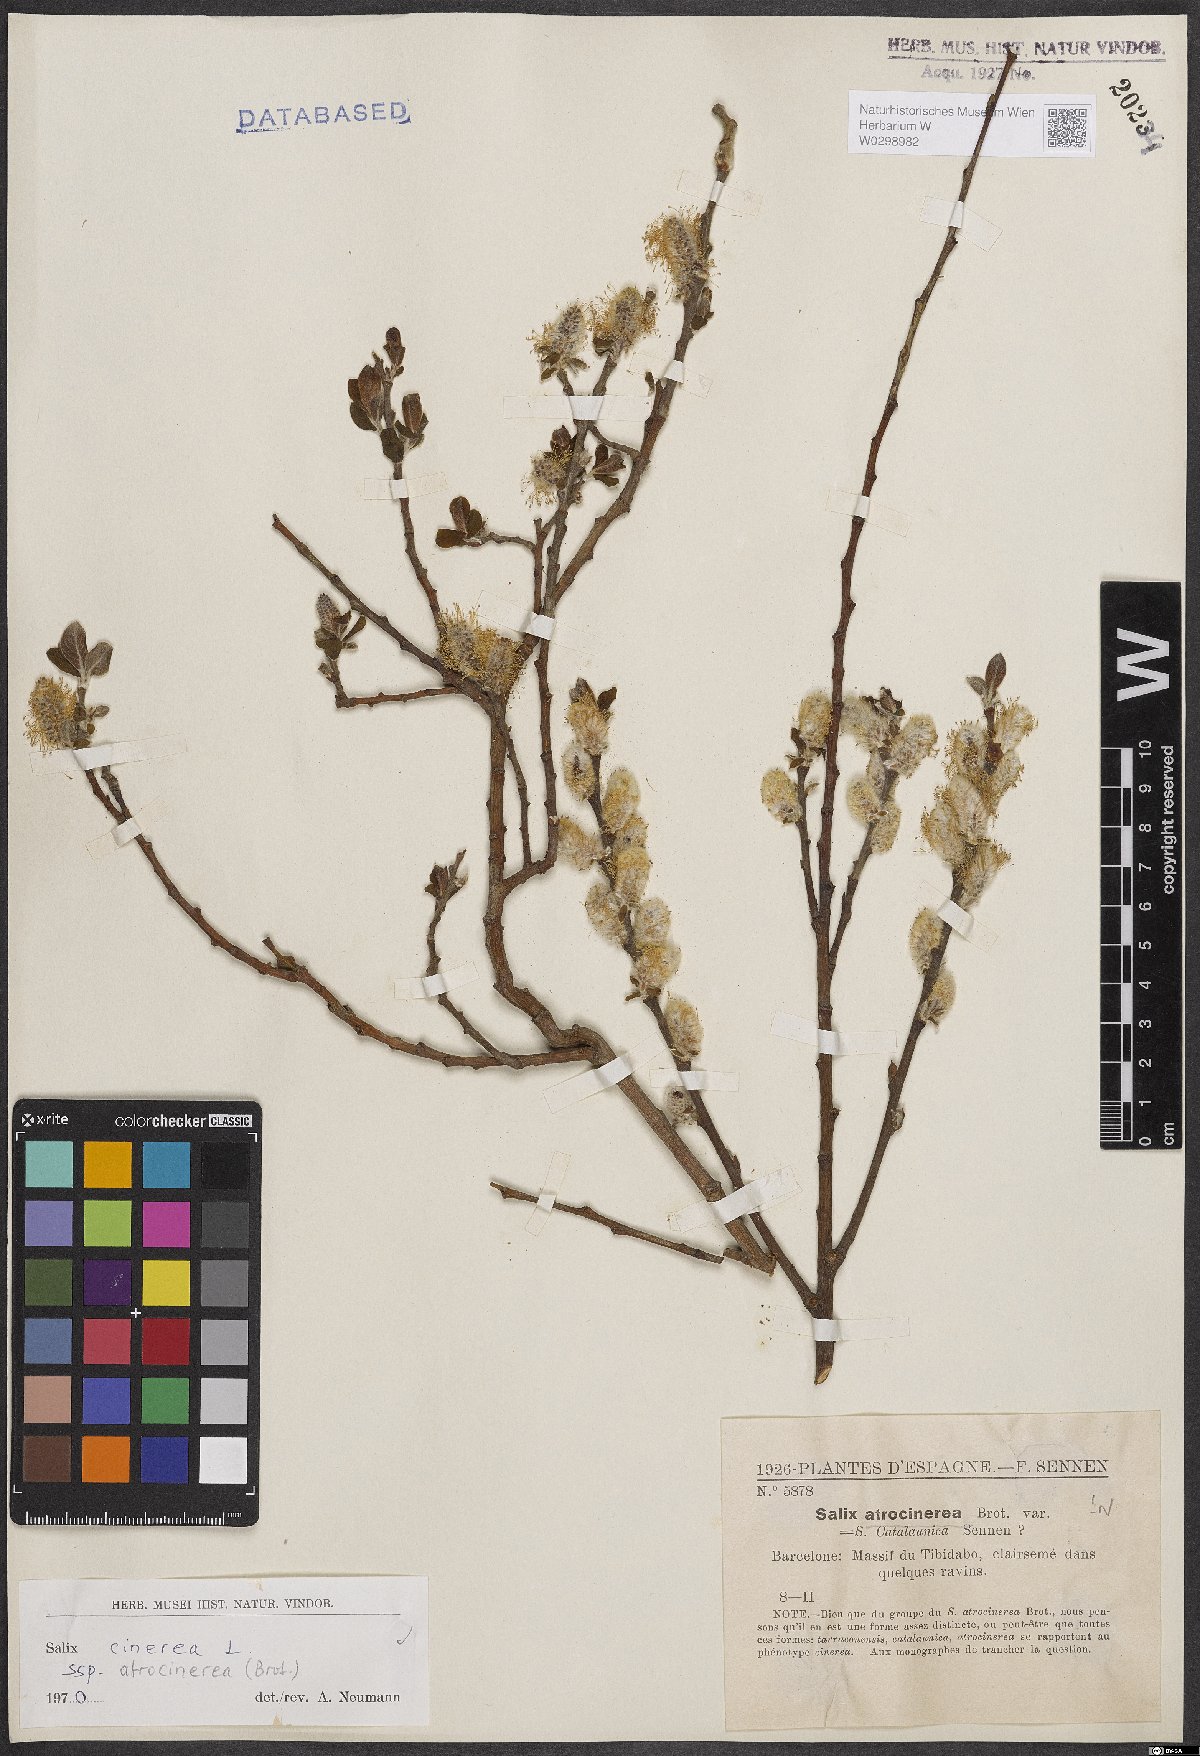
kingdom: Plantae
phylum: Tracheophyta
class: Magnoliopsida
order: Malpighiales
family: Salicaceae
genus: Salix
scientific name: Salix atrocinerea
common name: Rusty willow
